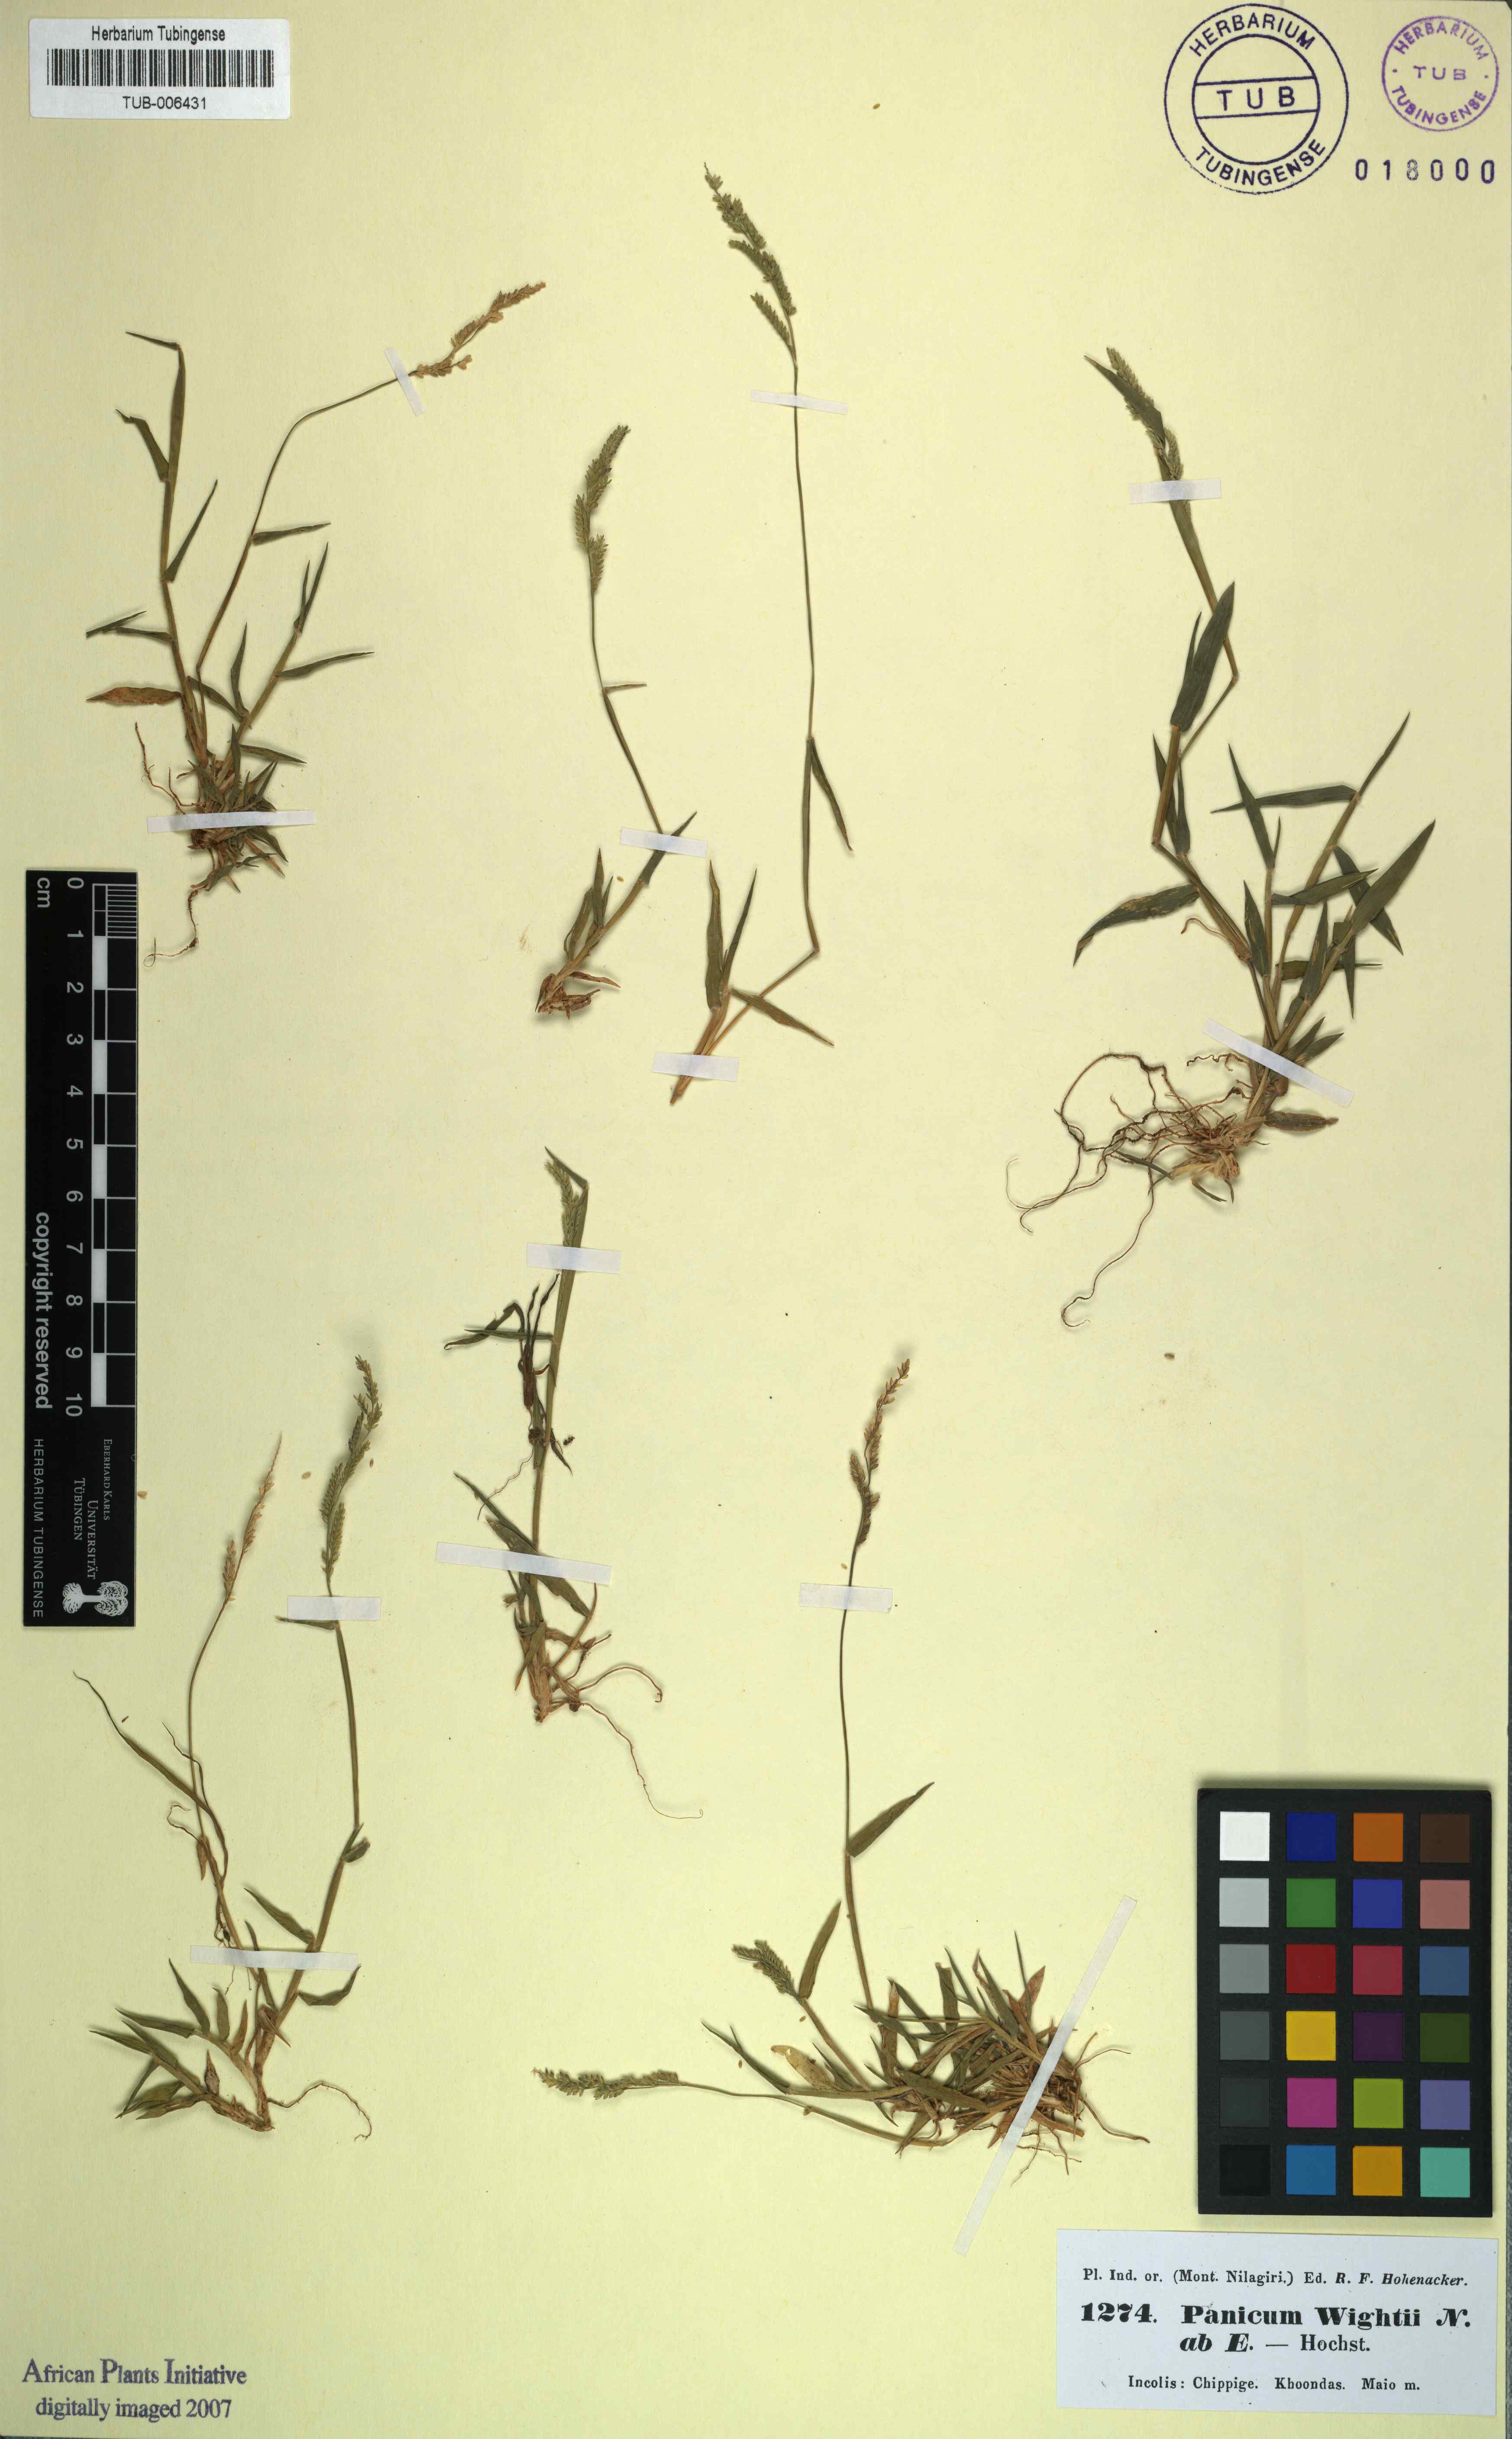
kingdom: Plantae
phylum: Tracheophyta
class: Liliopsida
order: Poales
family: Poaceae
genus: Moorochloa
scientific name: Moorochloa eruciformis
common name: Sweet signalgrass
